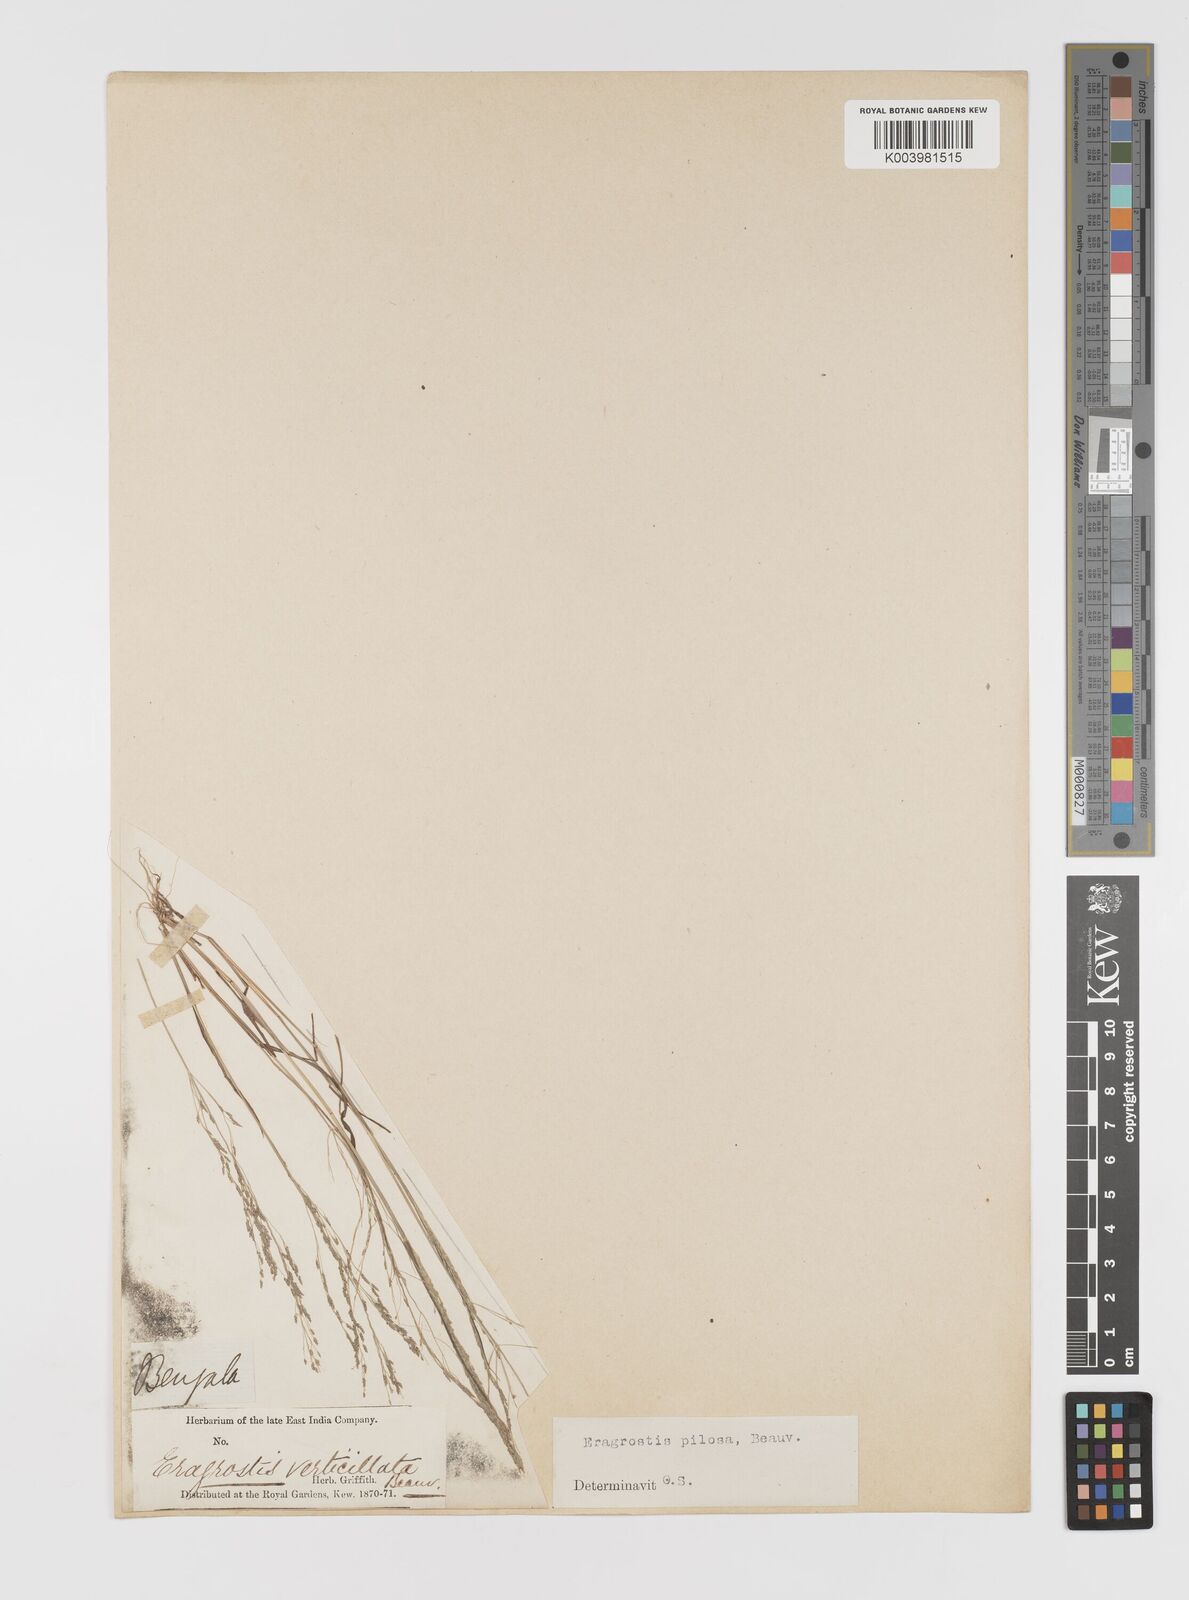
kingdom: Plantae
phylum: Tracheophyta
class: Liliopsida
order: Poales
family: Poaceae
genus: Eragrostis
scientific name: Eragrostis pilosa
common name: Indian lovegrass
